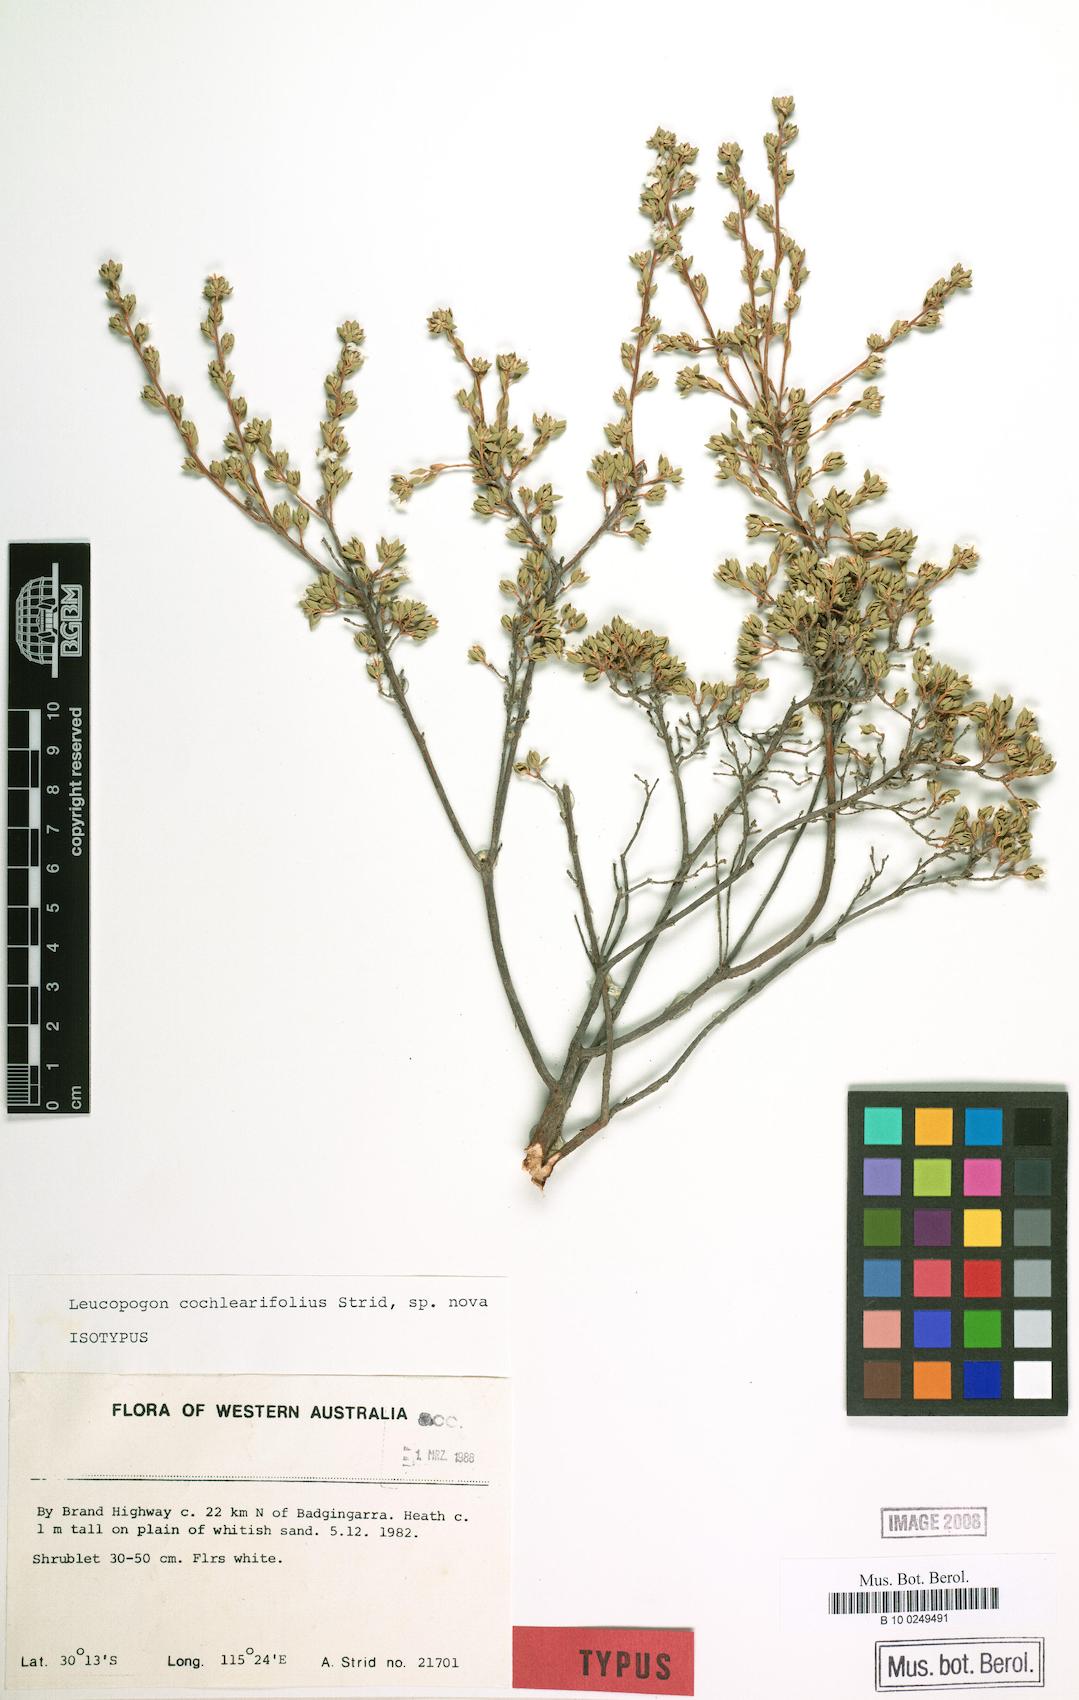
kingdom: Plantae
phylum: Tracheophyta
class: Magnoliopsida
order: Ericales
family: Ericaceae
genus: Leucopogon
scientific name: Leucopogon cochlearifolius
